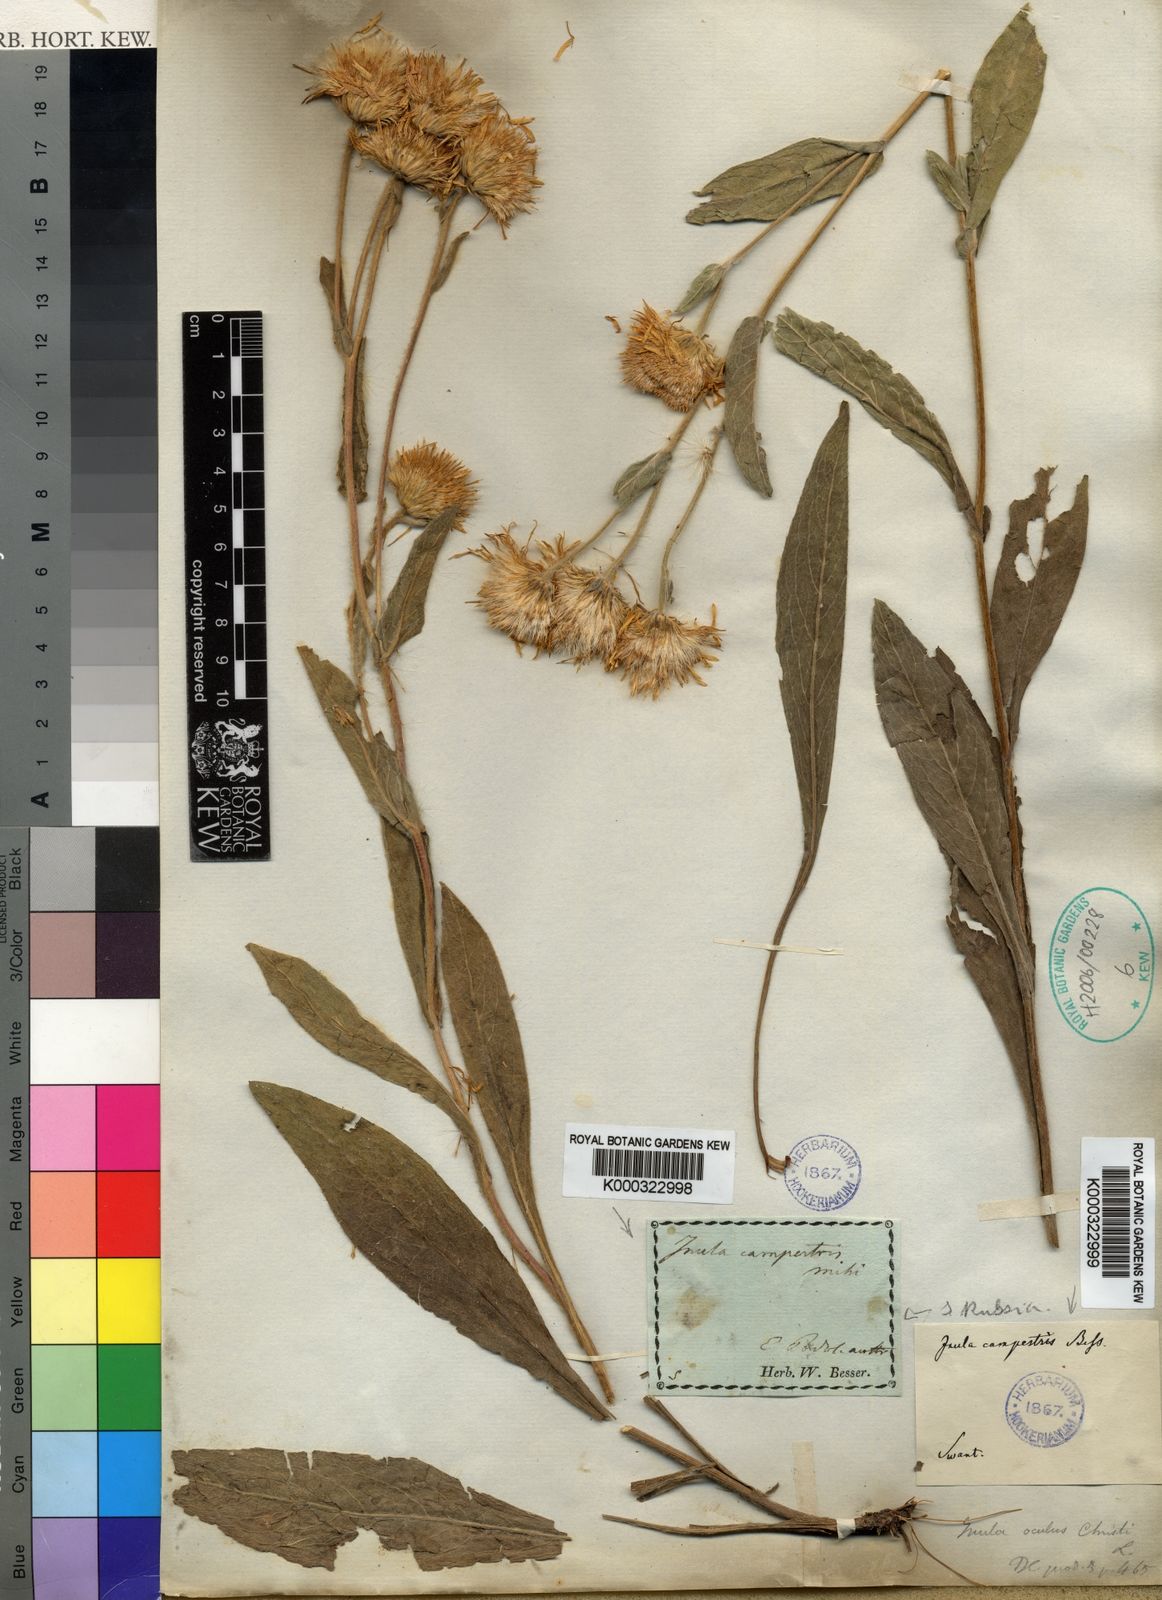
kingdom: Plantae
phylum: Tracheophyta
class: Magnoliopsida
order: Asterales
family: Asteraceae
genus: Inula
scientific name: Inula
